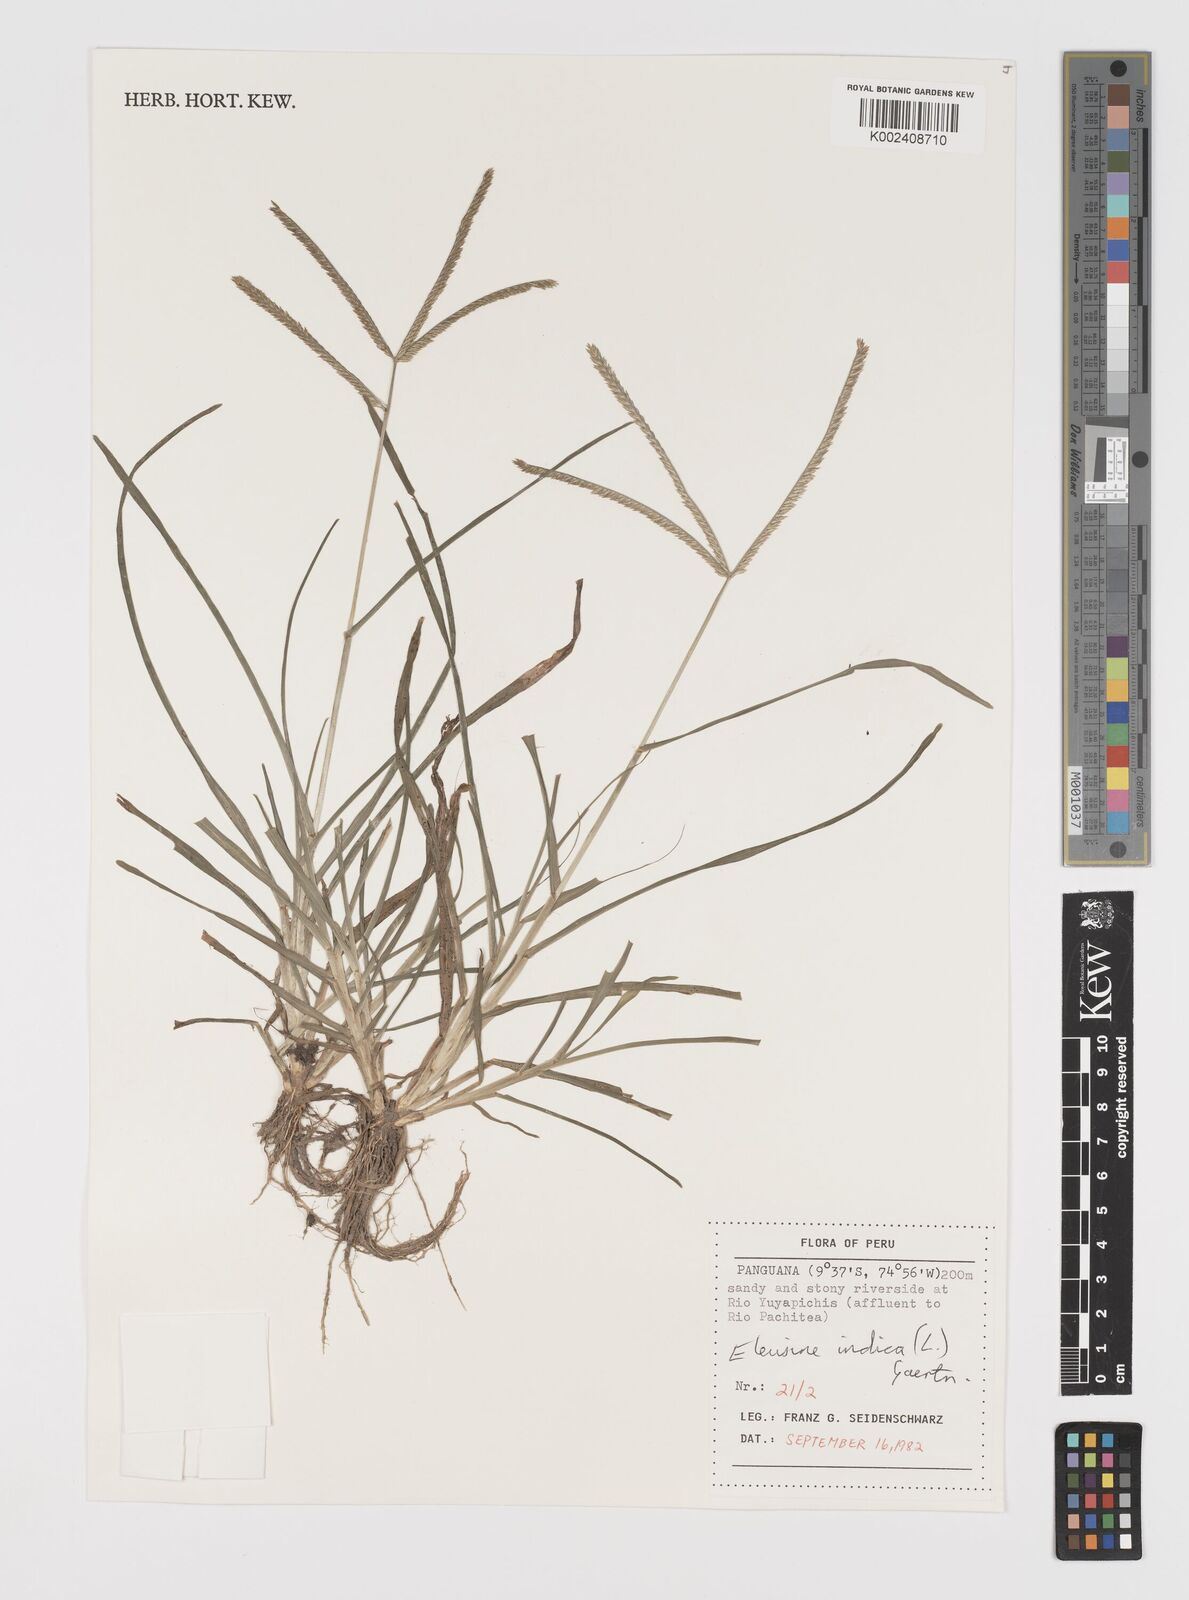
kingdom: Plantae
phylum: Tracheophyta
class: Liliopsida
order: Poales
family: Poaceae
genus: Eleusine
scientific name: Eleusine indica
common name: Yard-grass
